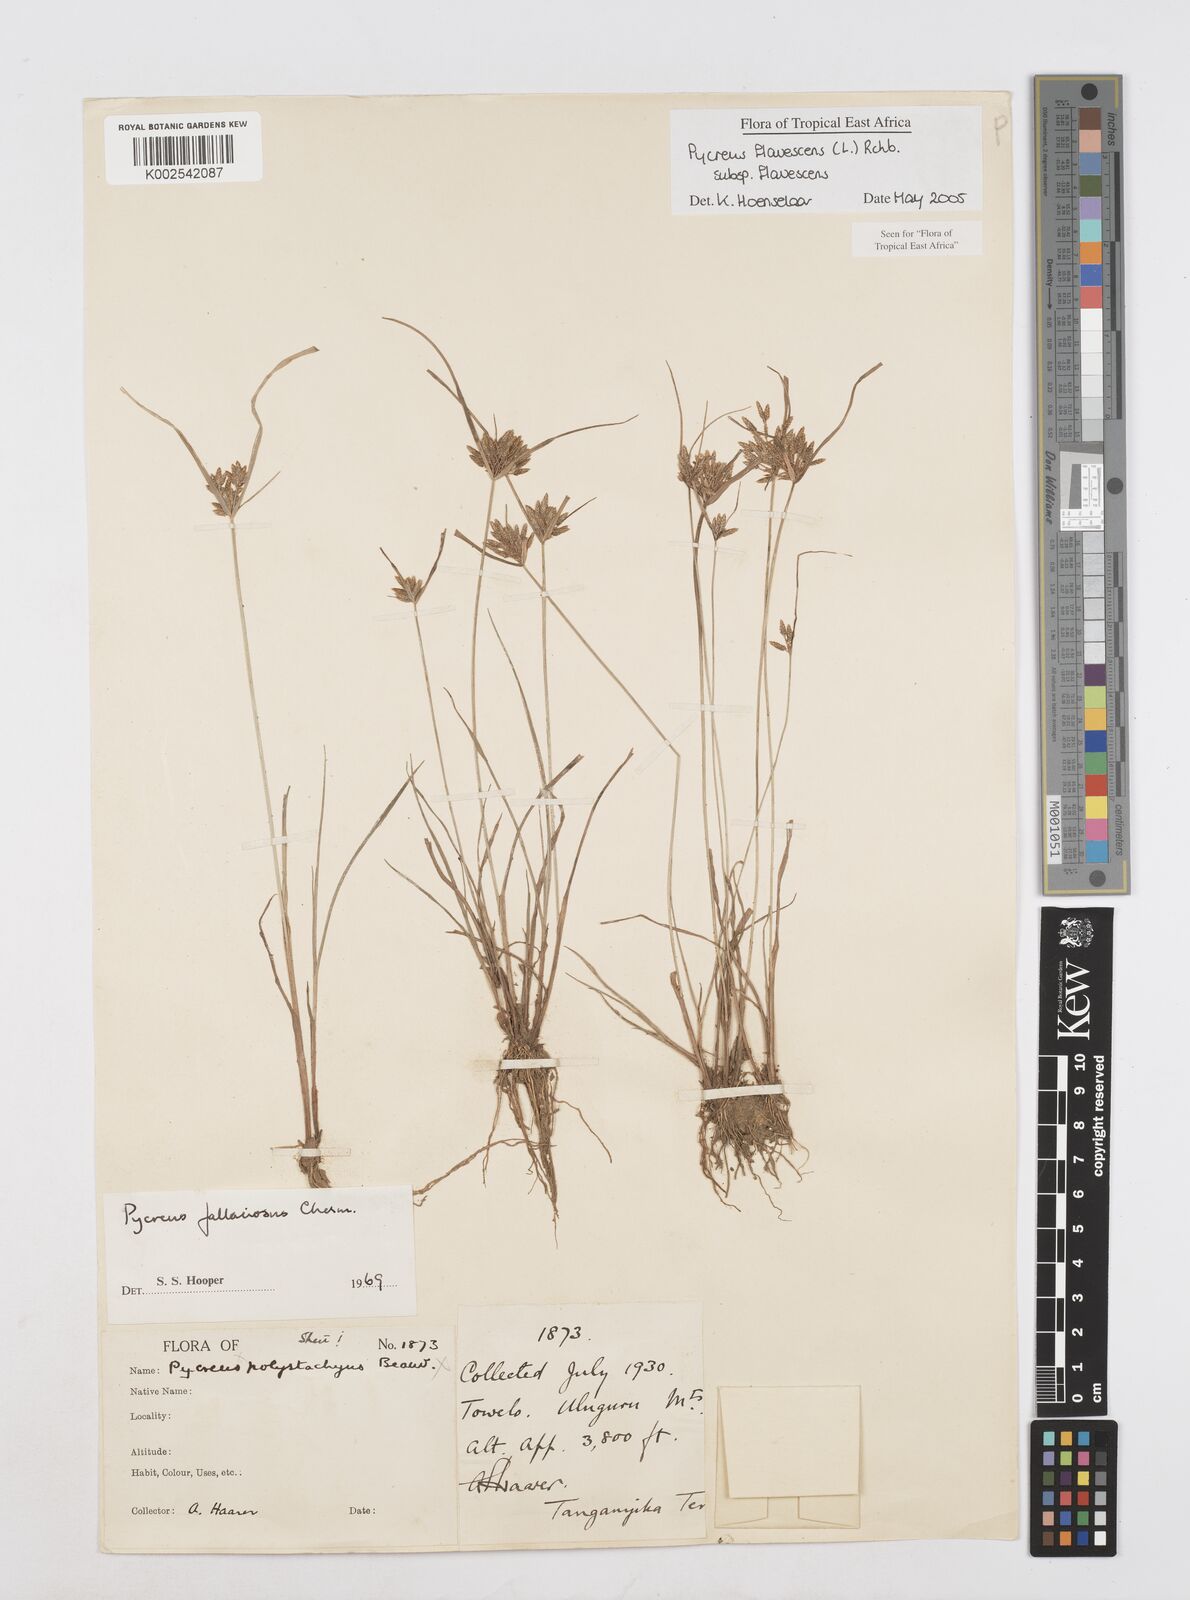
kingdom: Plantae
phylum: Tracheophyta
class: Liliopsida
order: Poales
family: Cyperaceae
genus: Cyperus
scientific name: Cyperus flavescens
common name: Yellow galingale
